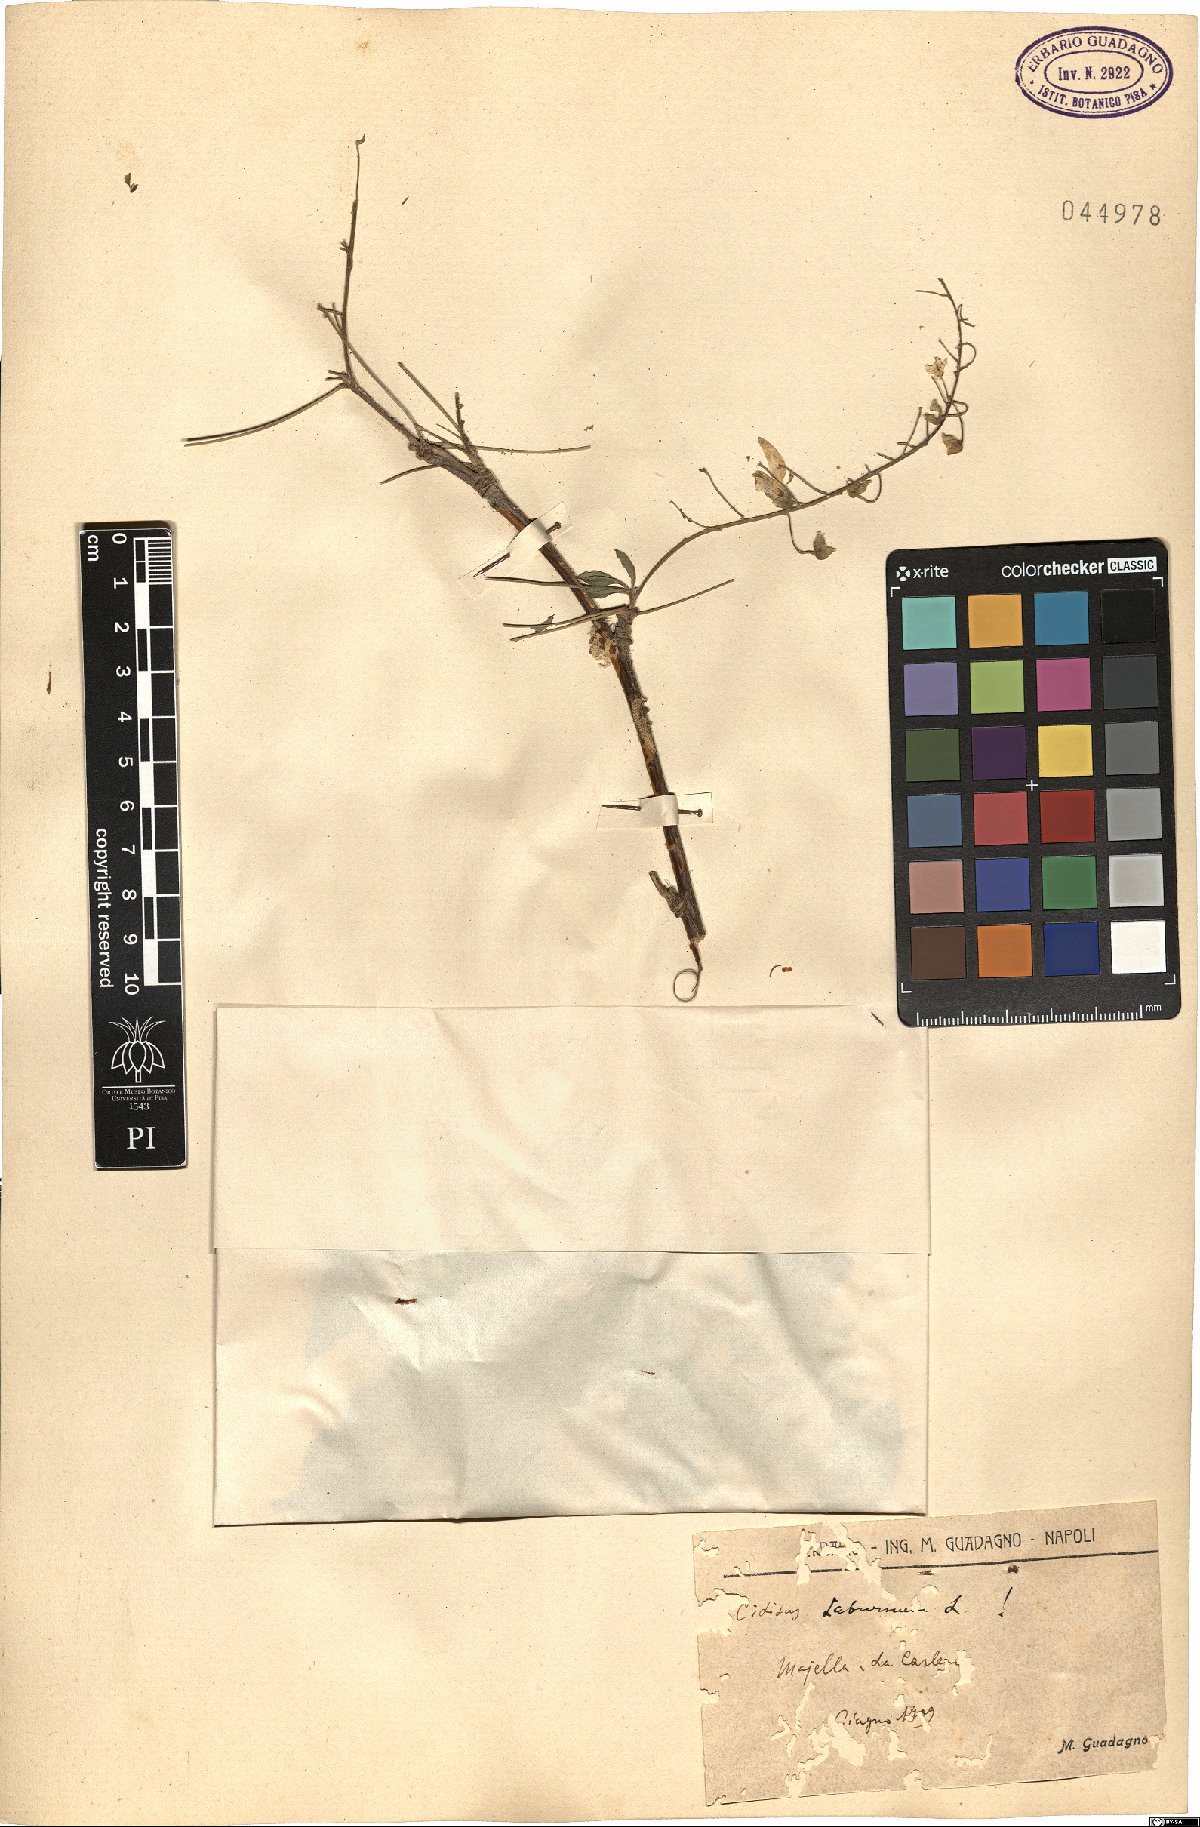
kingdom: Plantae
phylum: Tracheophyta
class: Magnoliopsida
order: Fabales
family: Fabaceae
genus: Laburnum
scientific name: Laburnum anagyroides
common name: Laburnum
